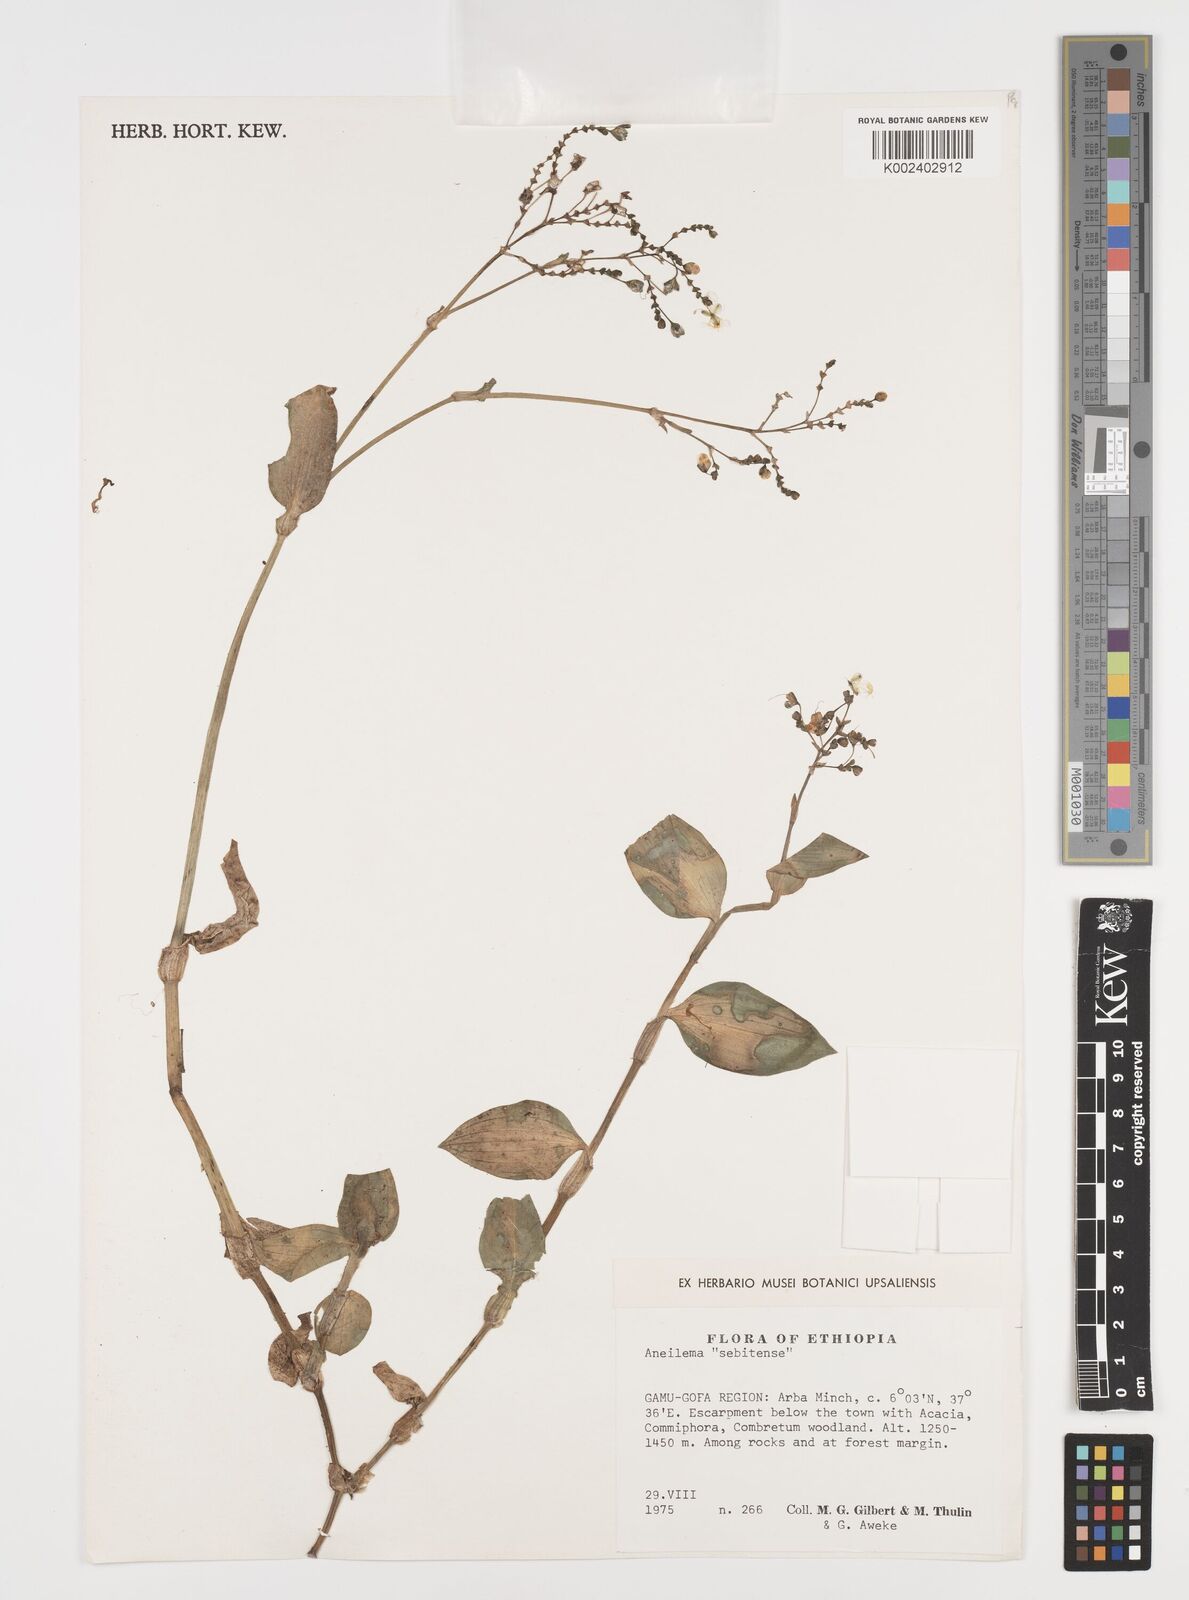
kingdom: Plantae
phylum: Tracheophyta
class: Liliopsida
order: Commelinales
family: Commelinaceae
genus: Aneilema
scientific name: Aneilema sebitense
